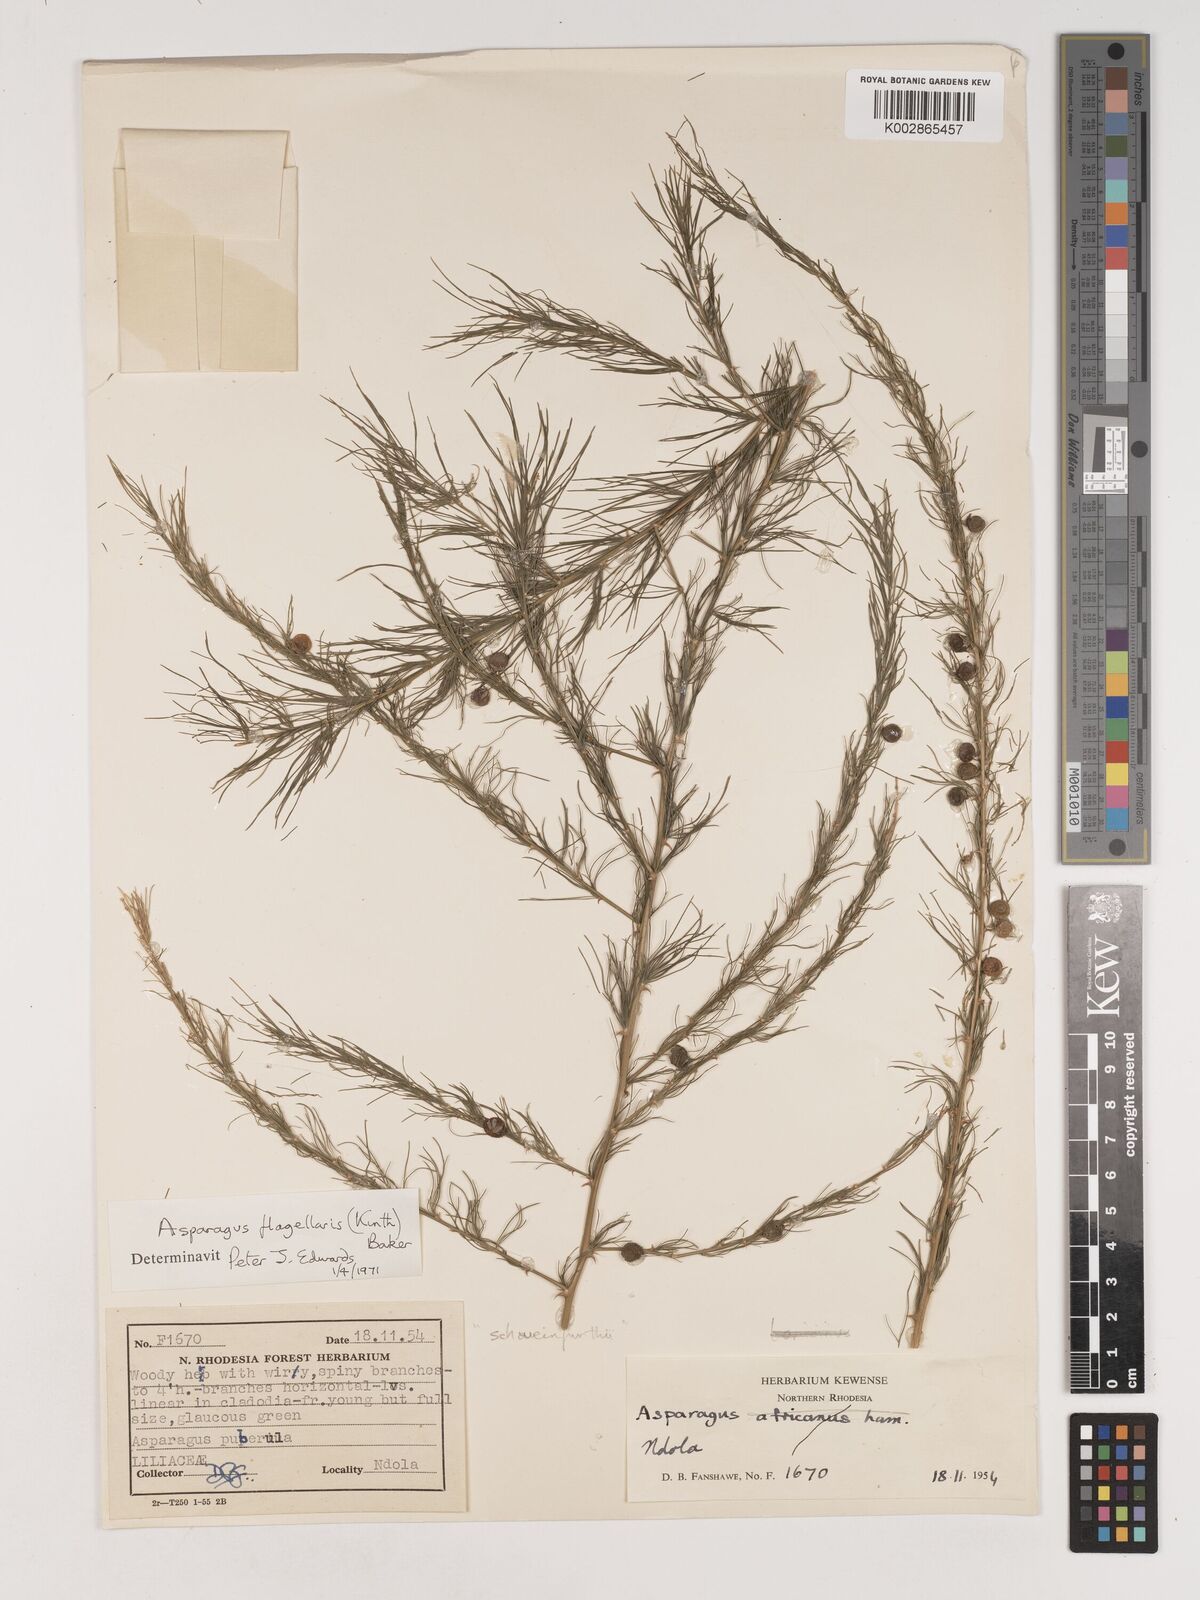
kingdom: Plantae
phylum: Tracheophyta
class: Liliopsida
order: Asparagales
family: Asparagaceae
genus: Asparagus
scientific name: Asparagus flagellaris
